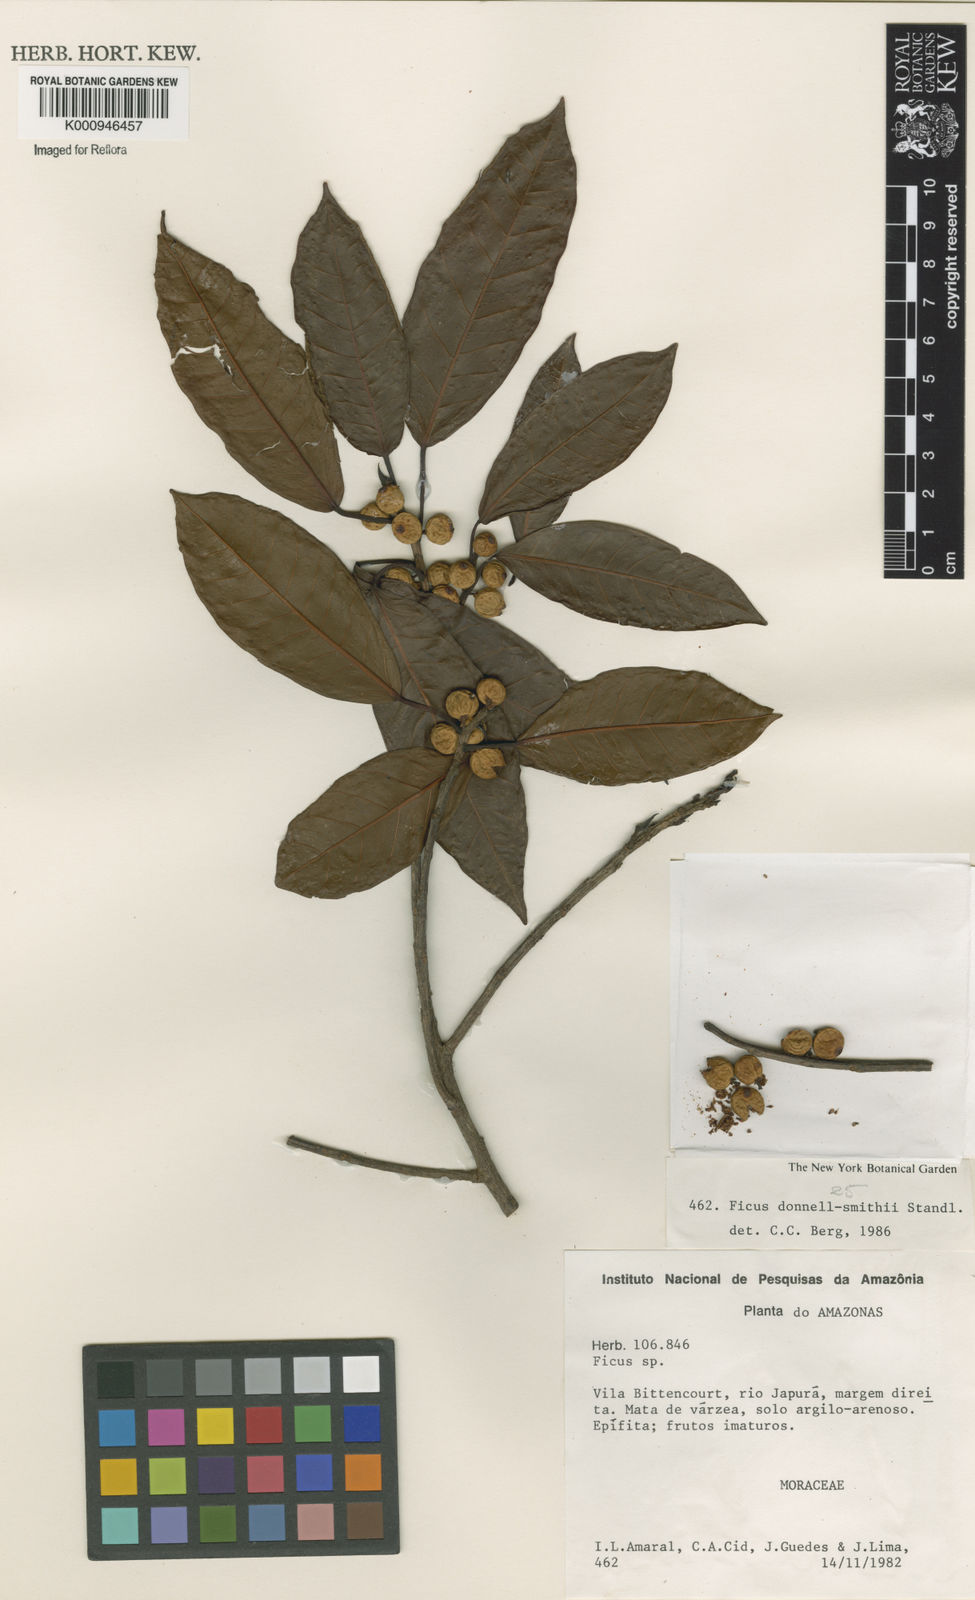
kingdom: Plantae
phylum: Tracheophyta
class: Magnoliopsida
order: Rosales
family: Moraceae
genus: Ficus
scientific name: Ficus donnell-smithii
